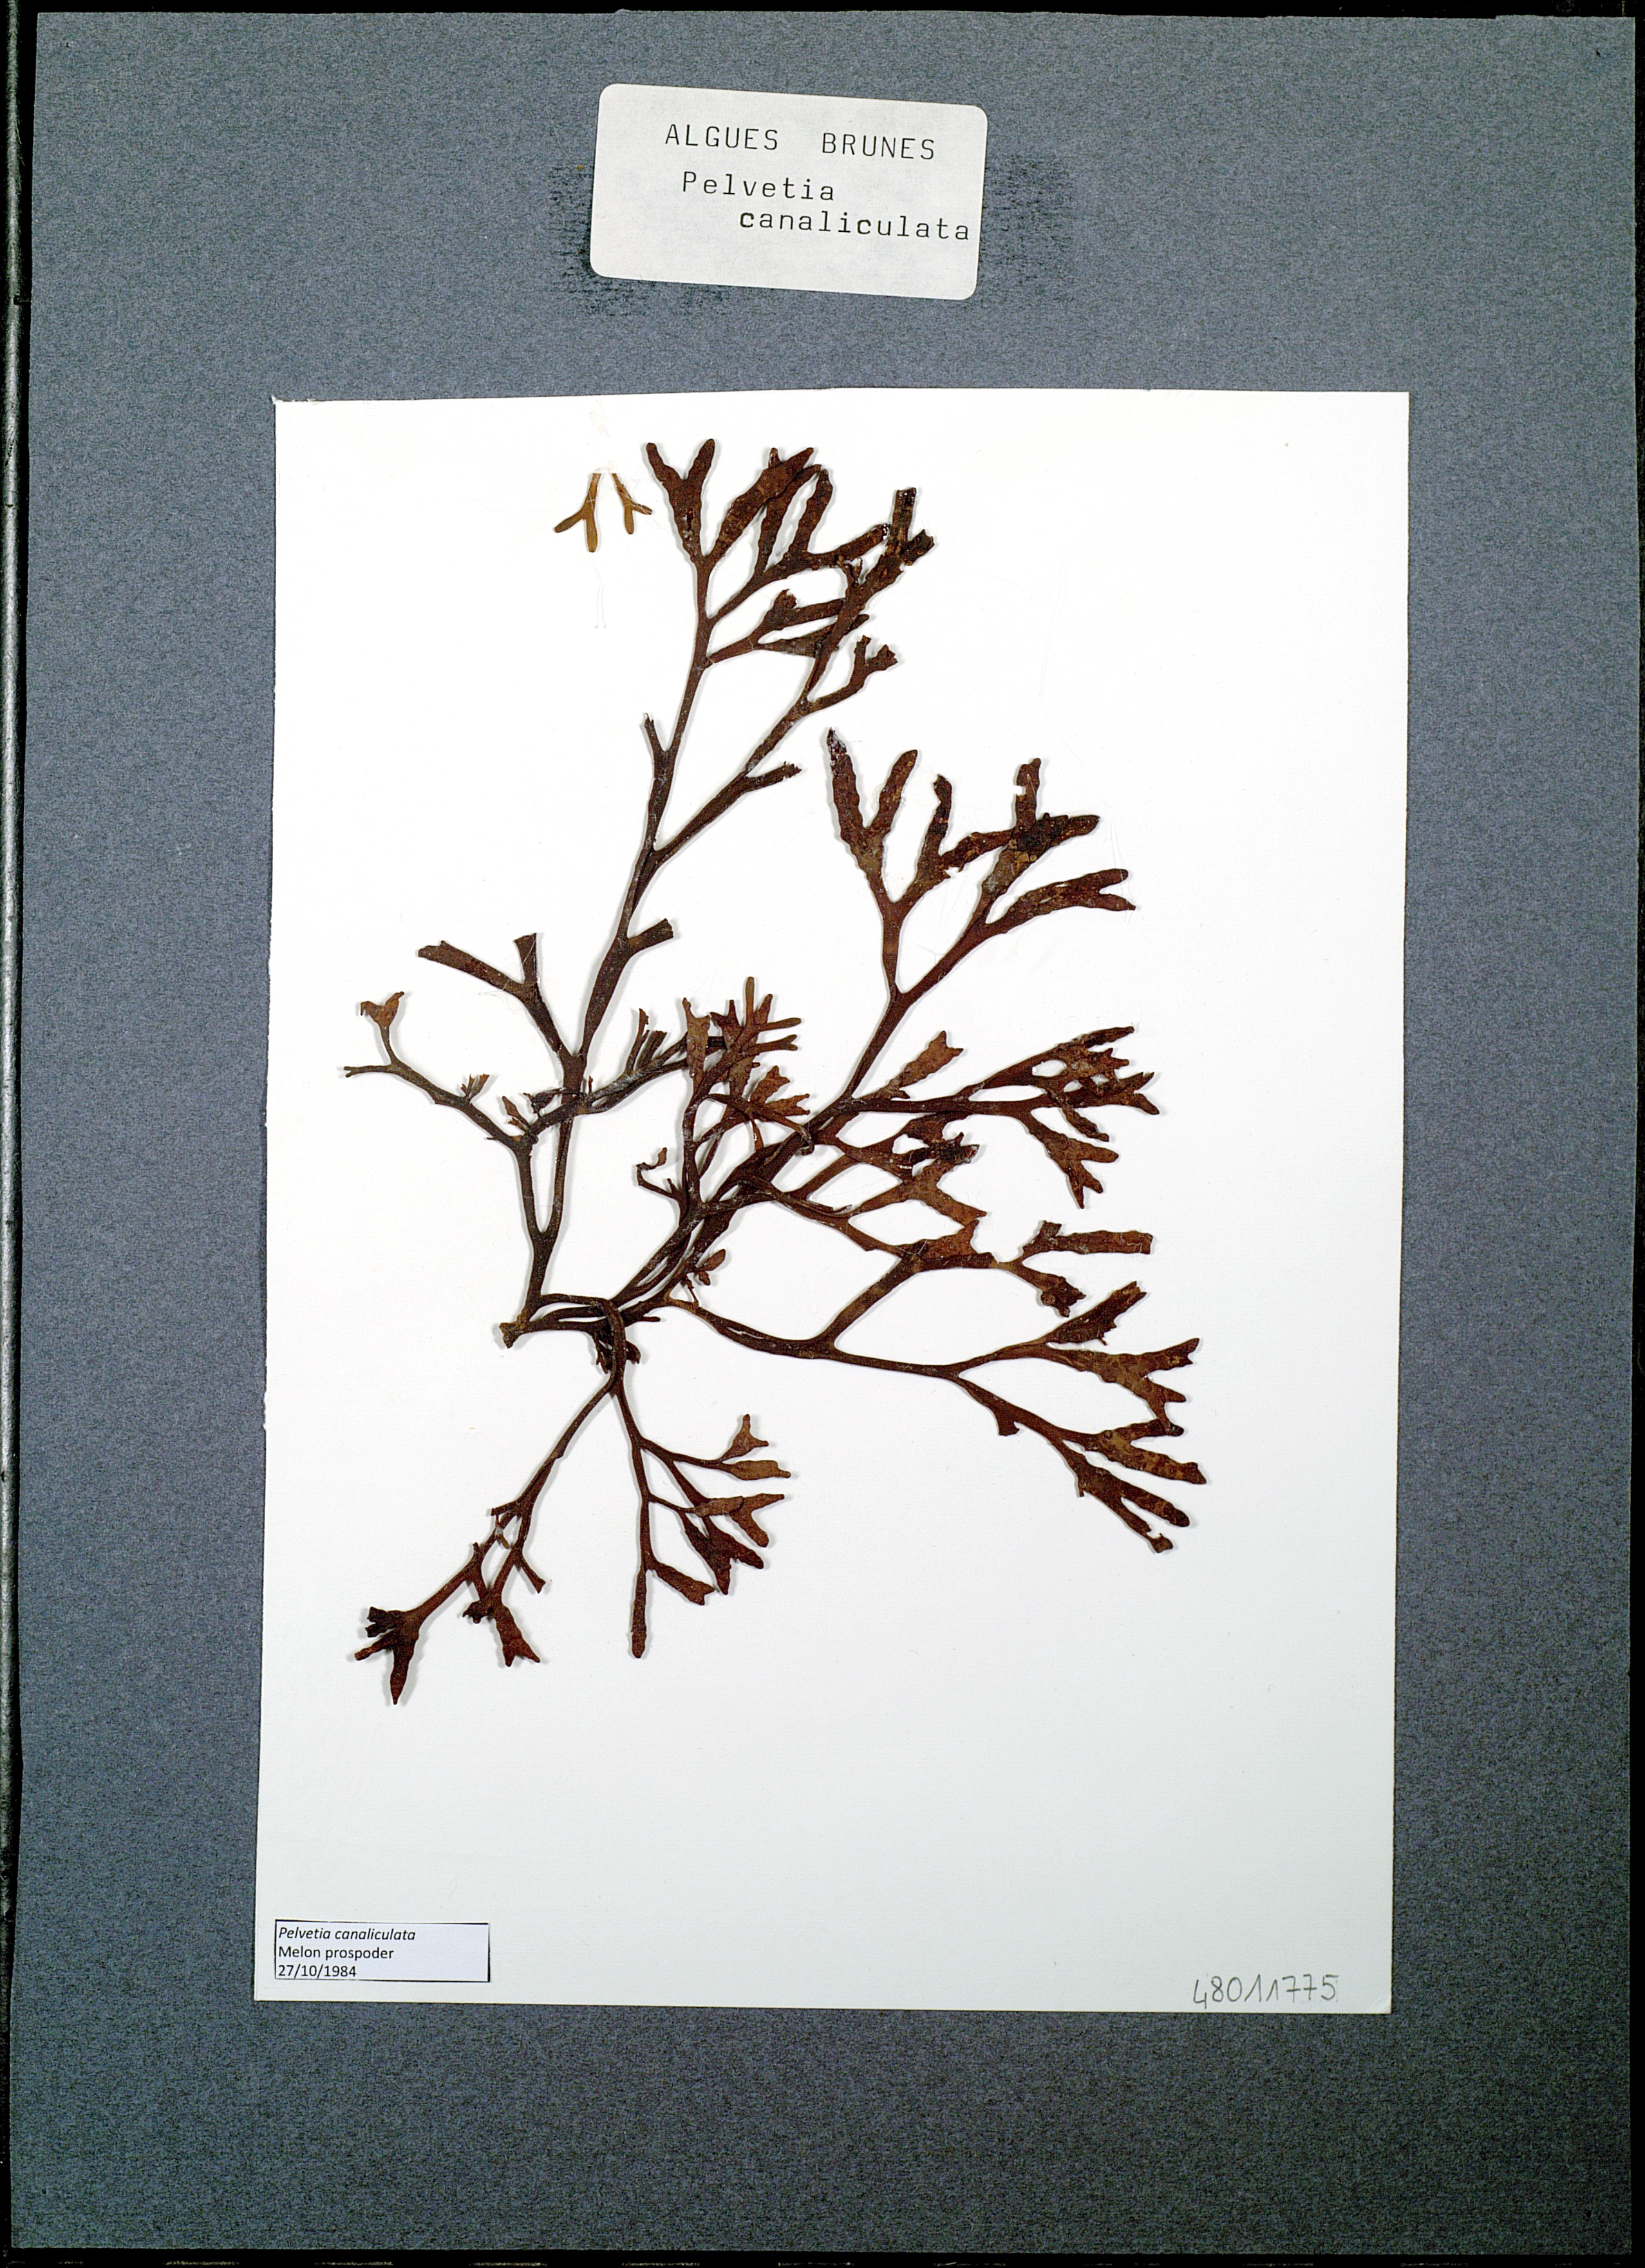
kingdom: Chromista
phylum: Ochrophyta
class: Phaeophyceae
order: Fucales
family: Fucaceae
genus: Pelvetia
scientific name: Pelvetia canaliculata
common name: Channelled wrack
